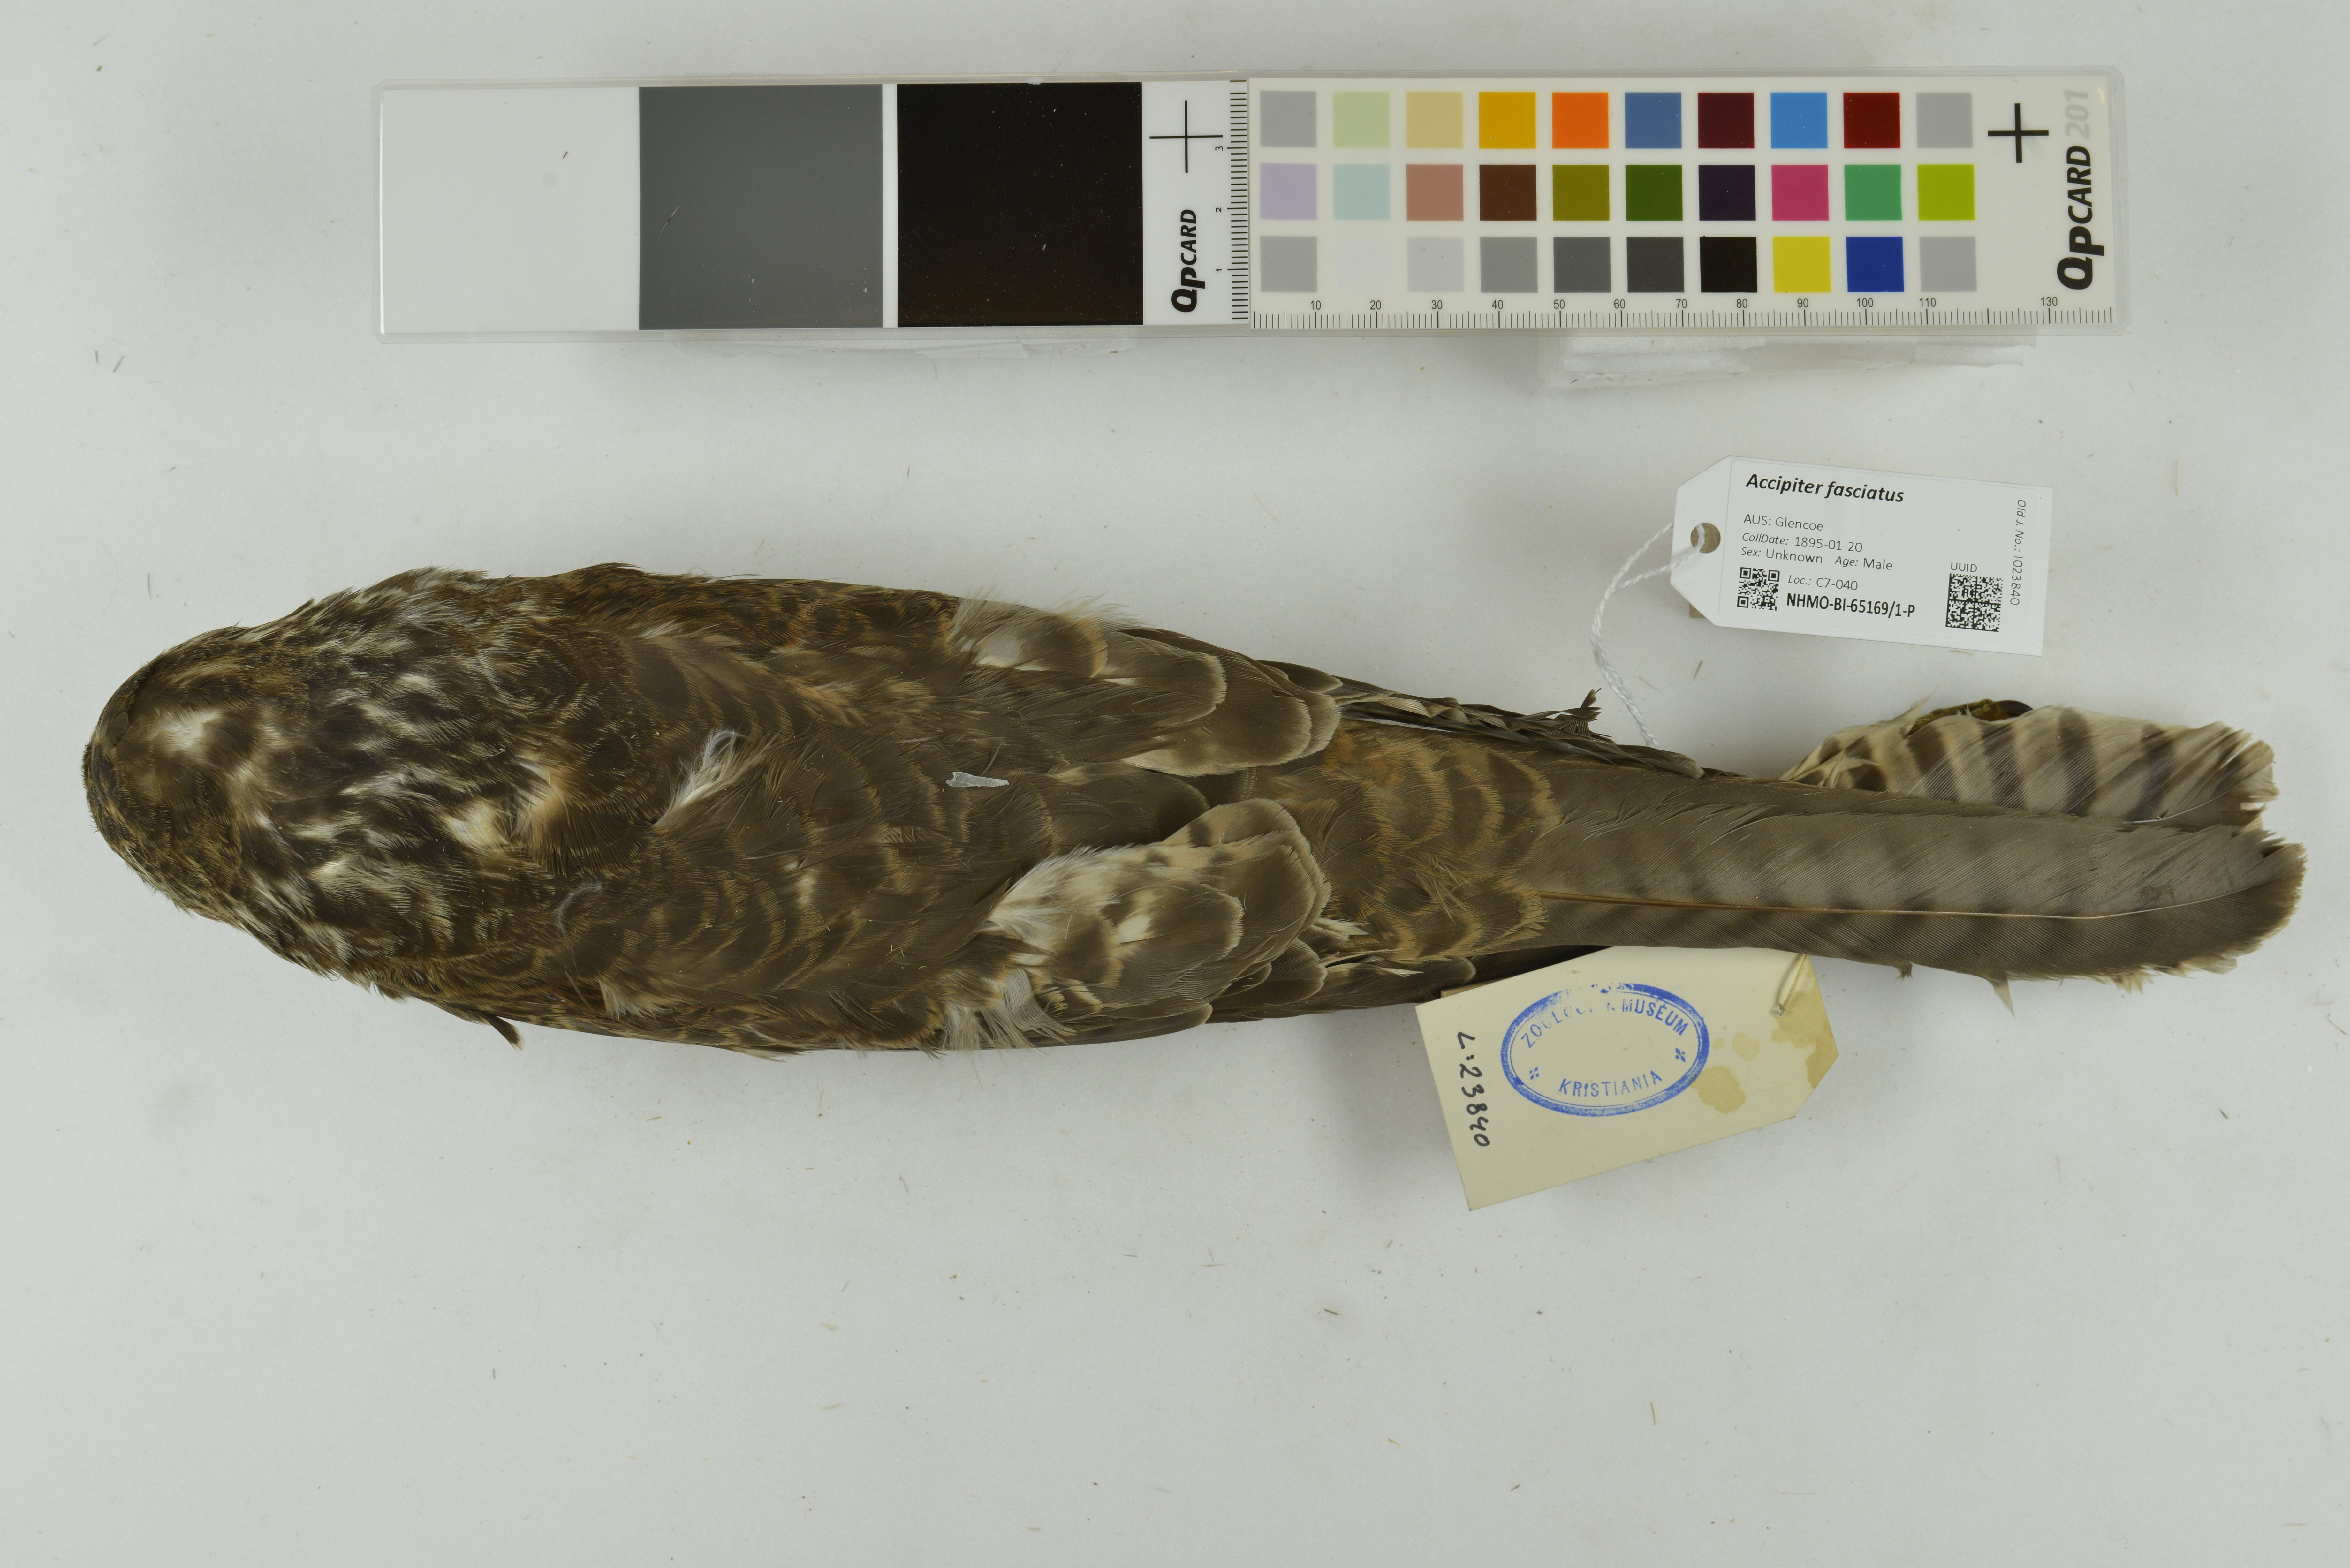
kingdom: Animalia
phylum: Chordata
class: Aves
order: Accipitriformes
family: Accipitridae
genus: Accipiter
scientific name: Accipiter fasciatus
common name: Brown goshawk
